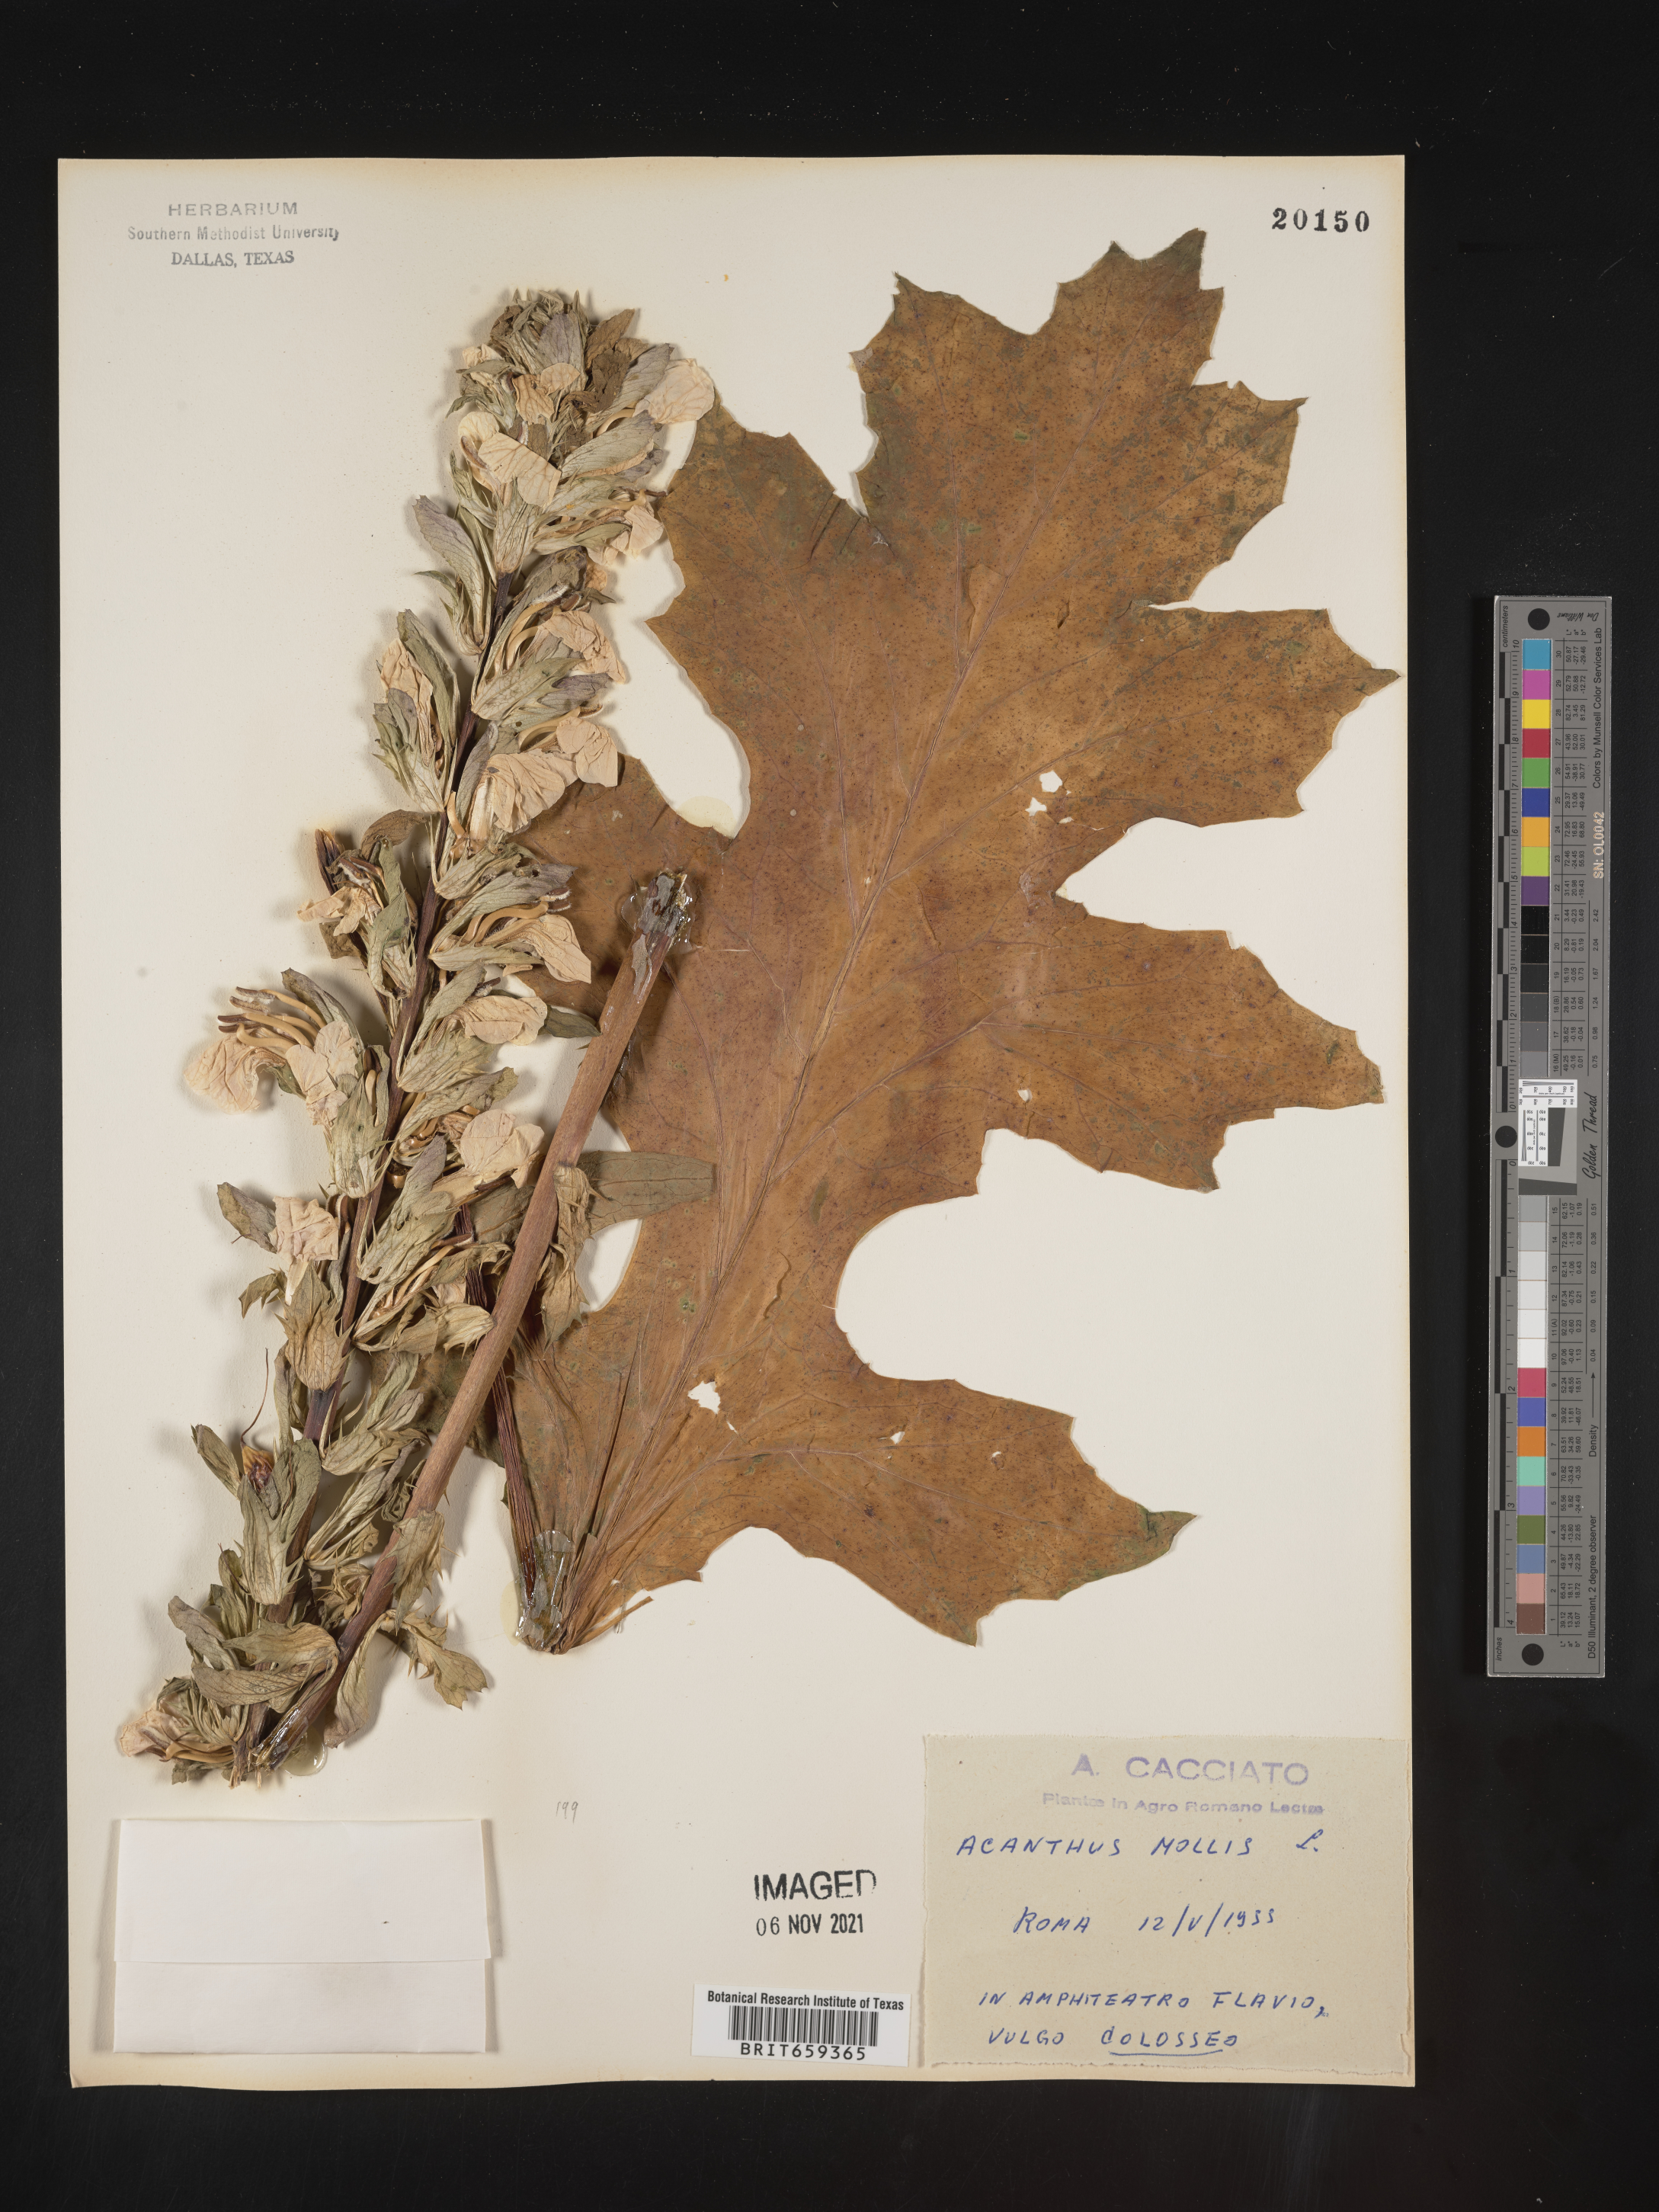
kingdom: Plantae
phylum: Tracheophyta
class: Magnoliopsida
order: Lamiales
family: Acanthaceae
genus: Acanthus
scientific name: Acanthus
